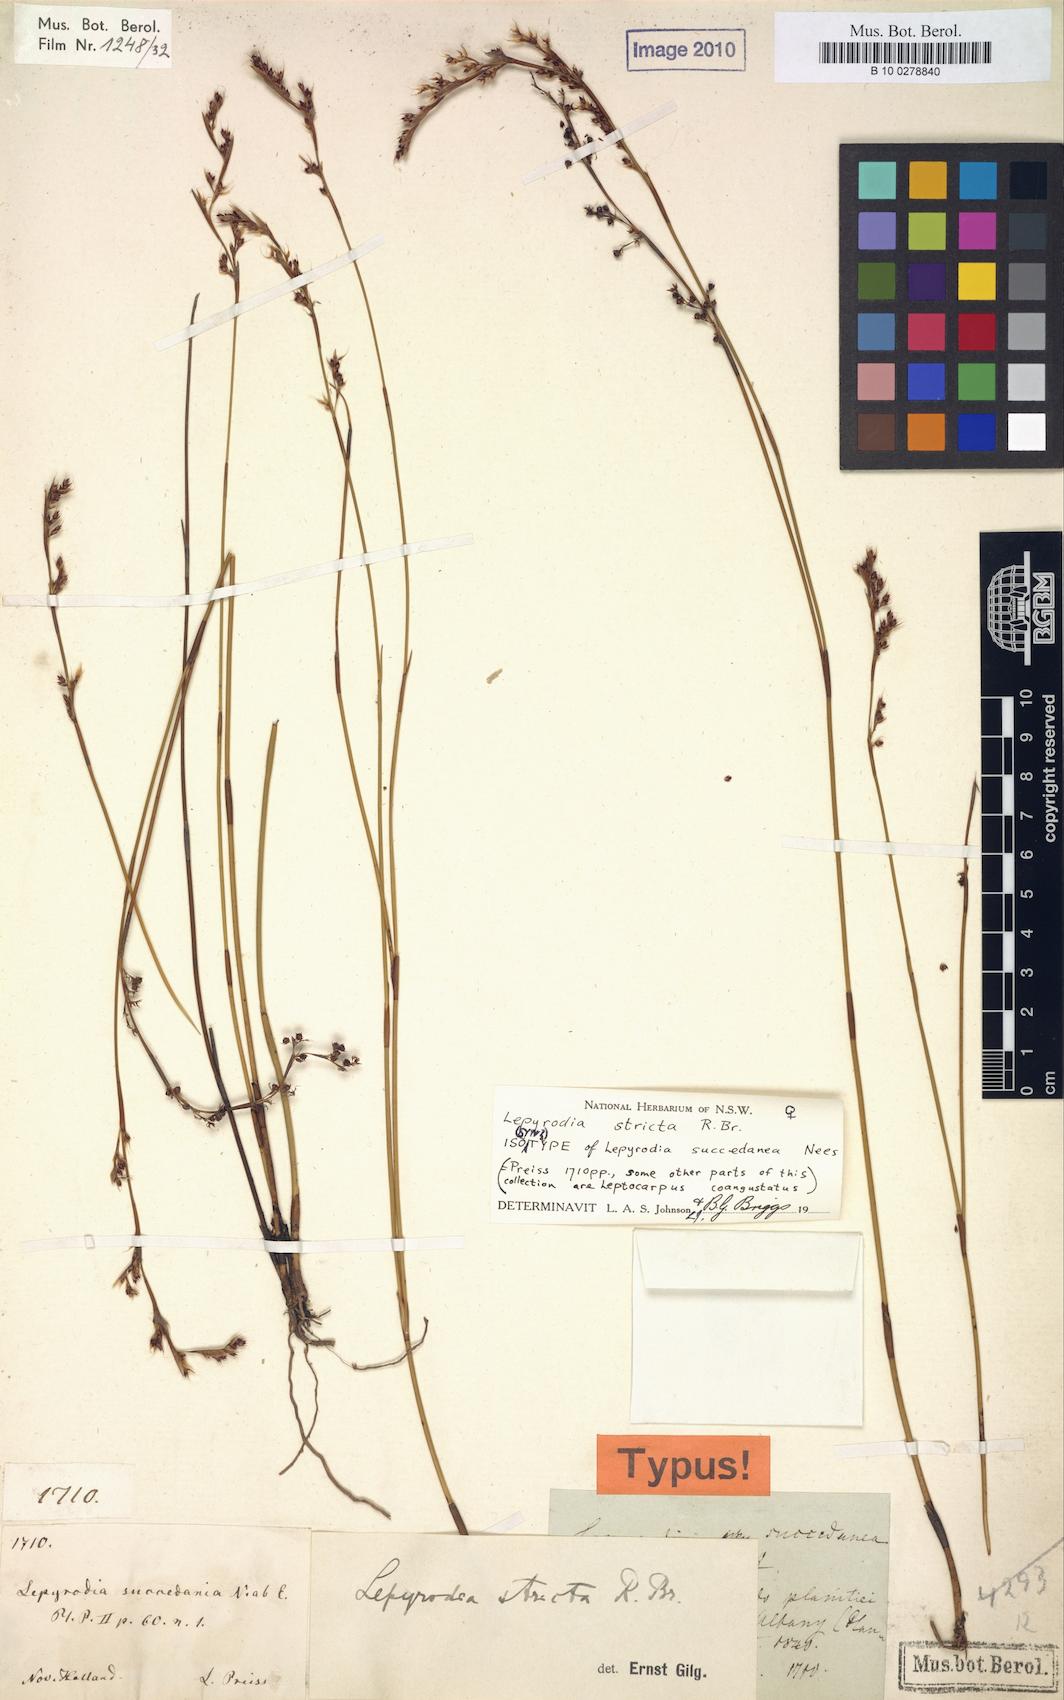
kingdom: Plantae
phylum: Tracheophyta
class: Liliopsida
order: Poales
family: Restionaceae
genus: Sporadanthus
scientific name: Sporadanthus strictus
